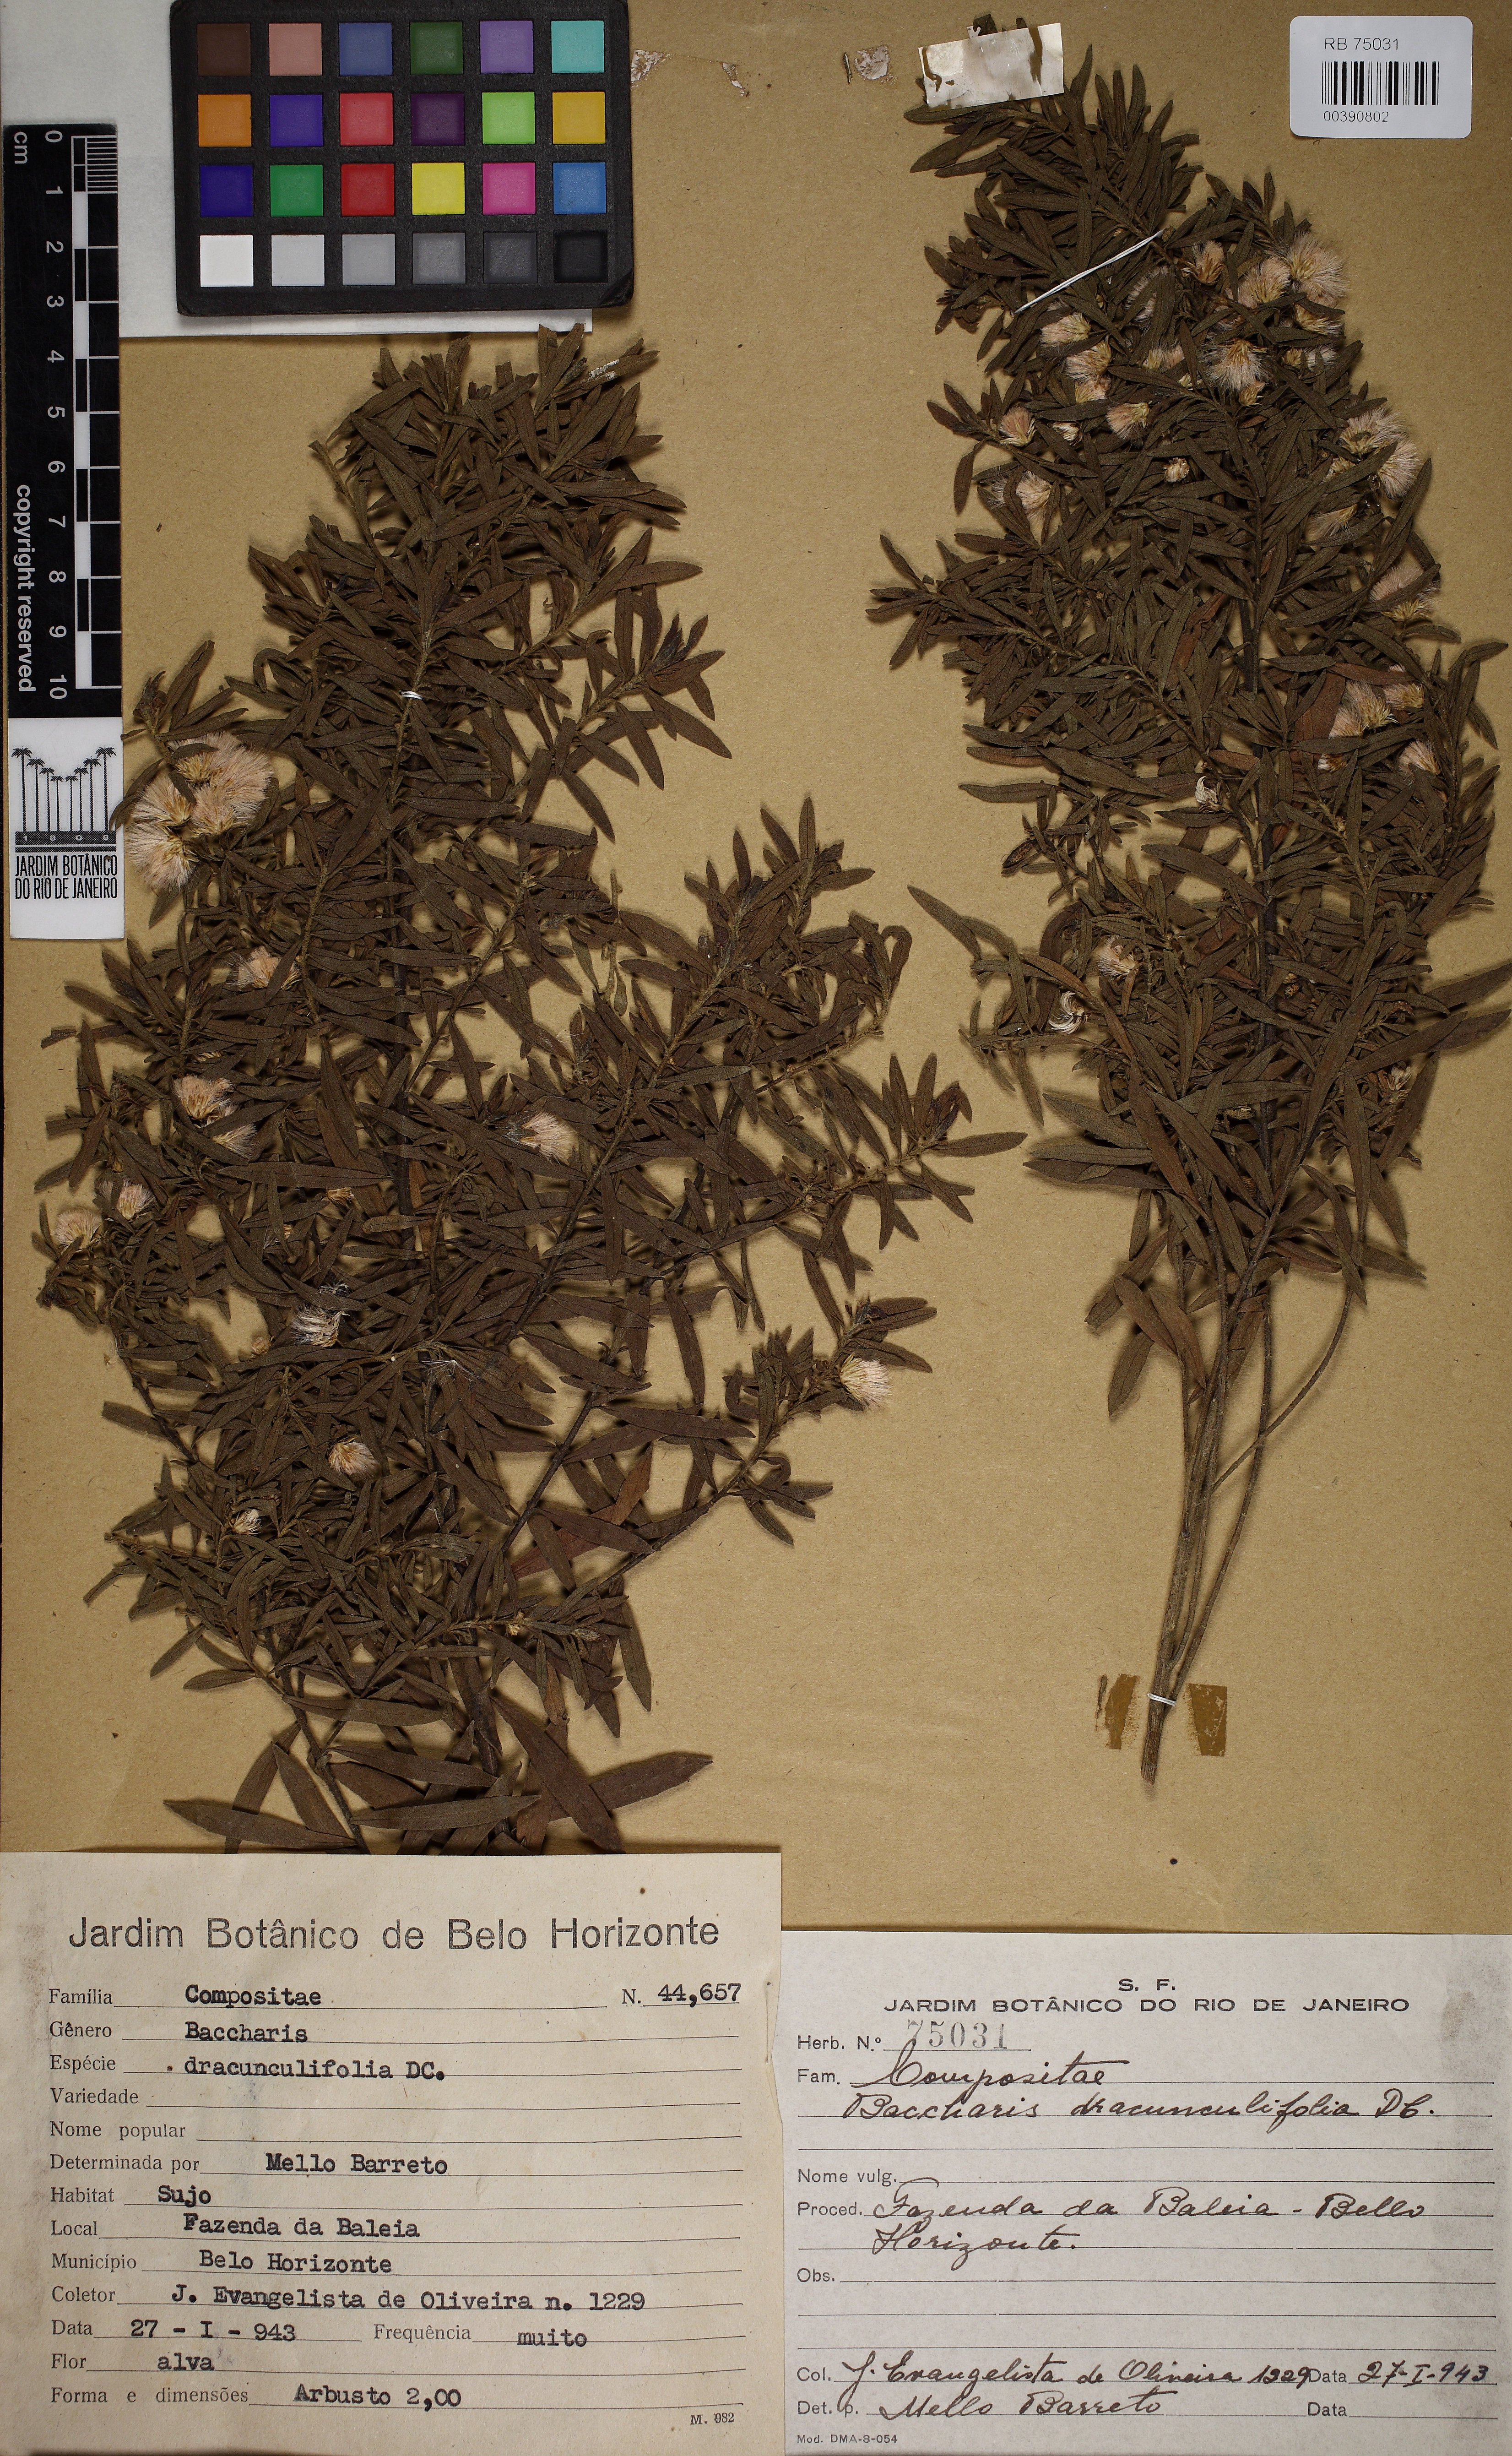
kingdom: Plantae
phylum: Tracheophyta
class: Magnoliopsida
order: Asterales
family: Asteraceae
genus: Baccharis
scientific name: Baccharis dracunculifolia
